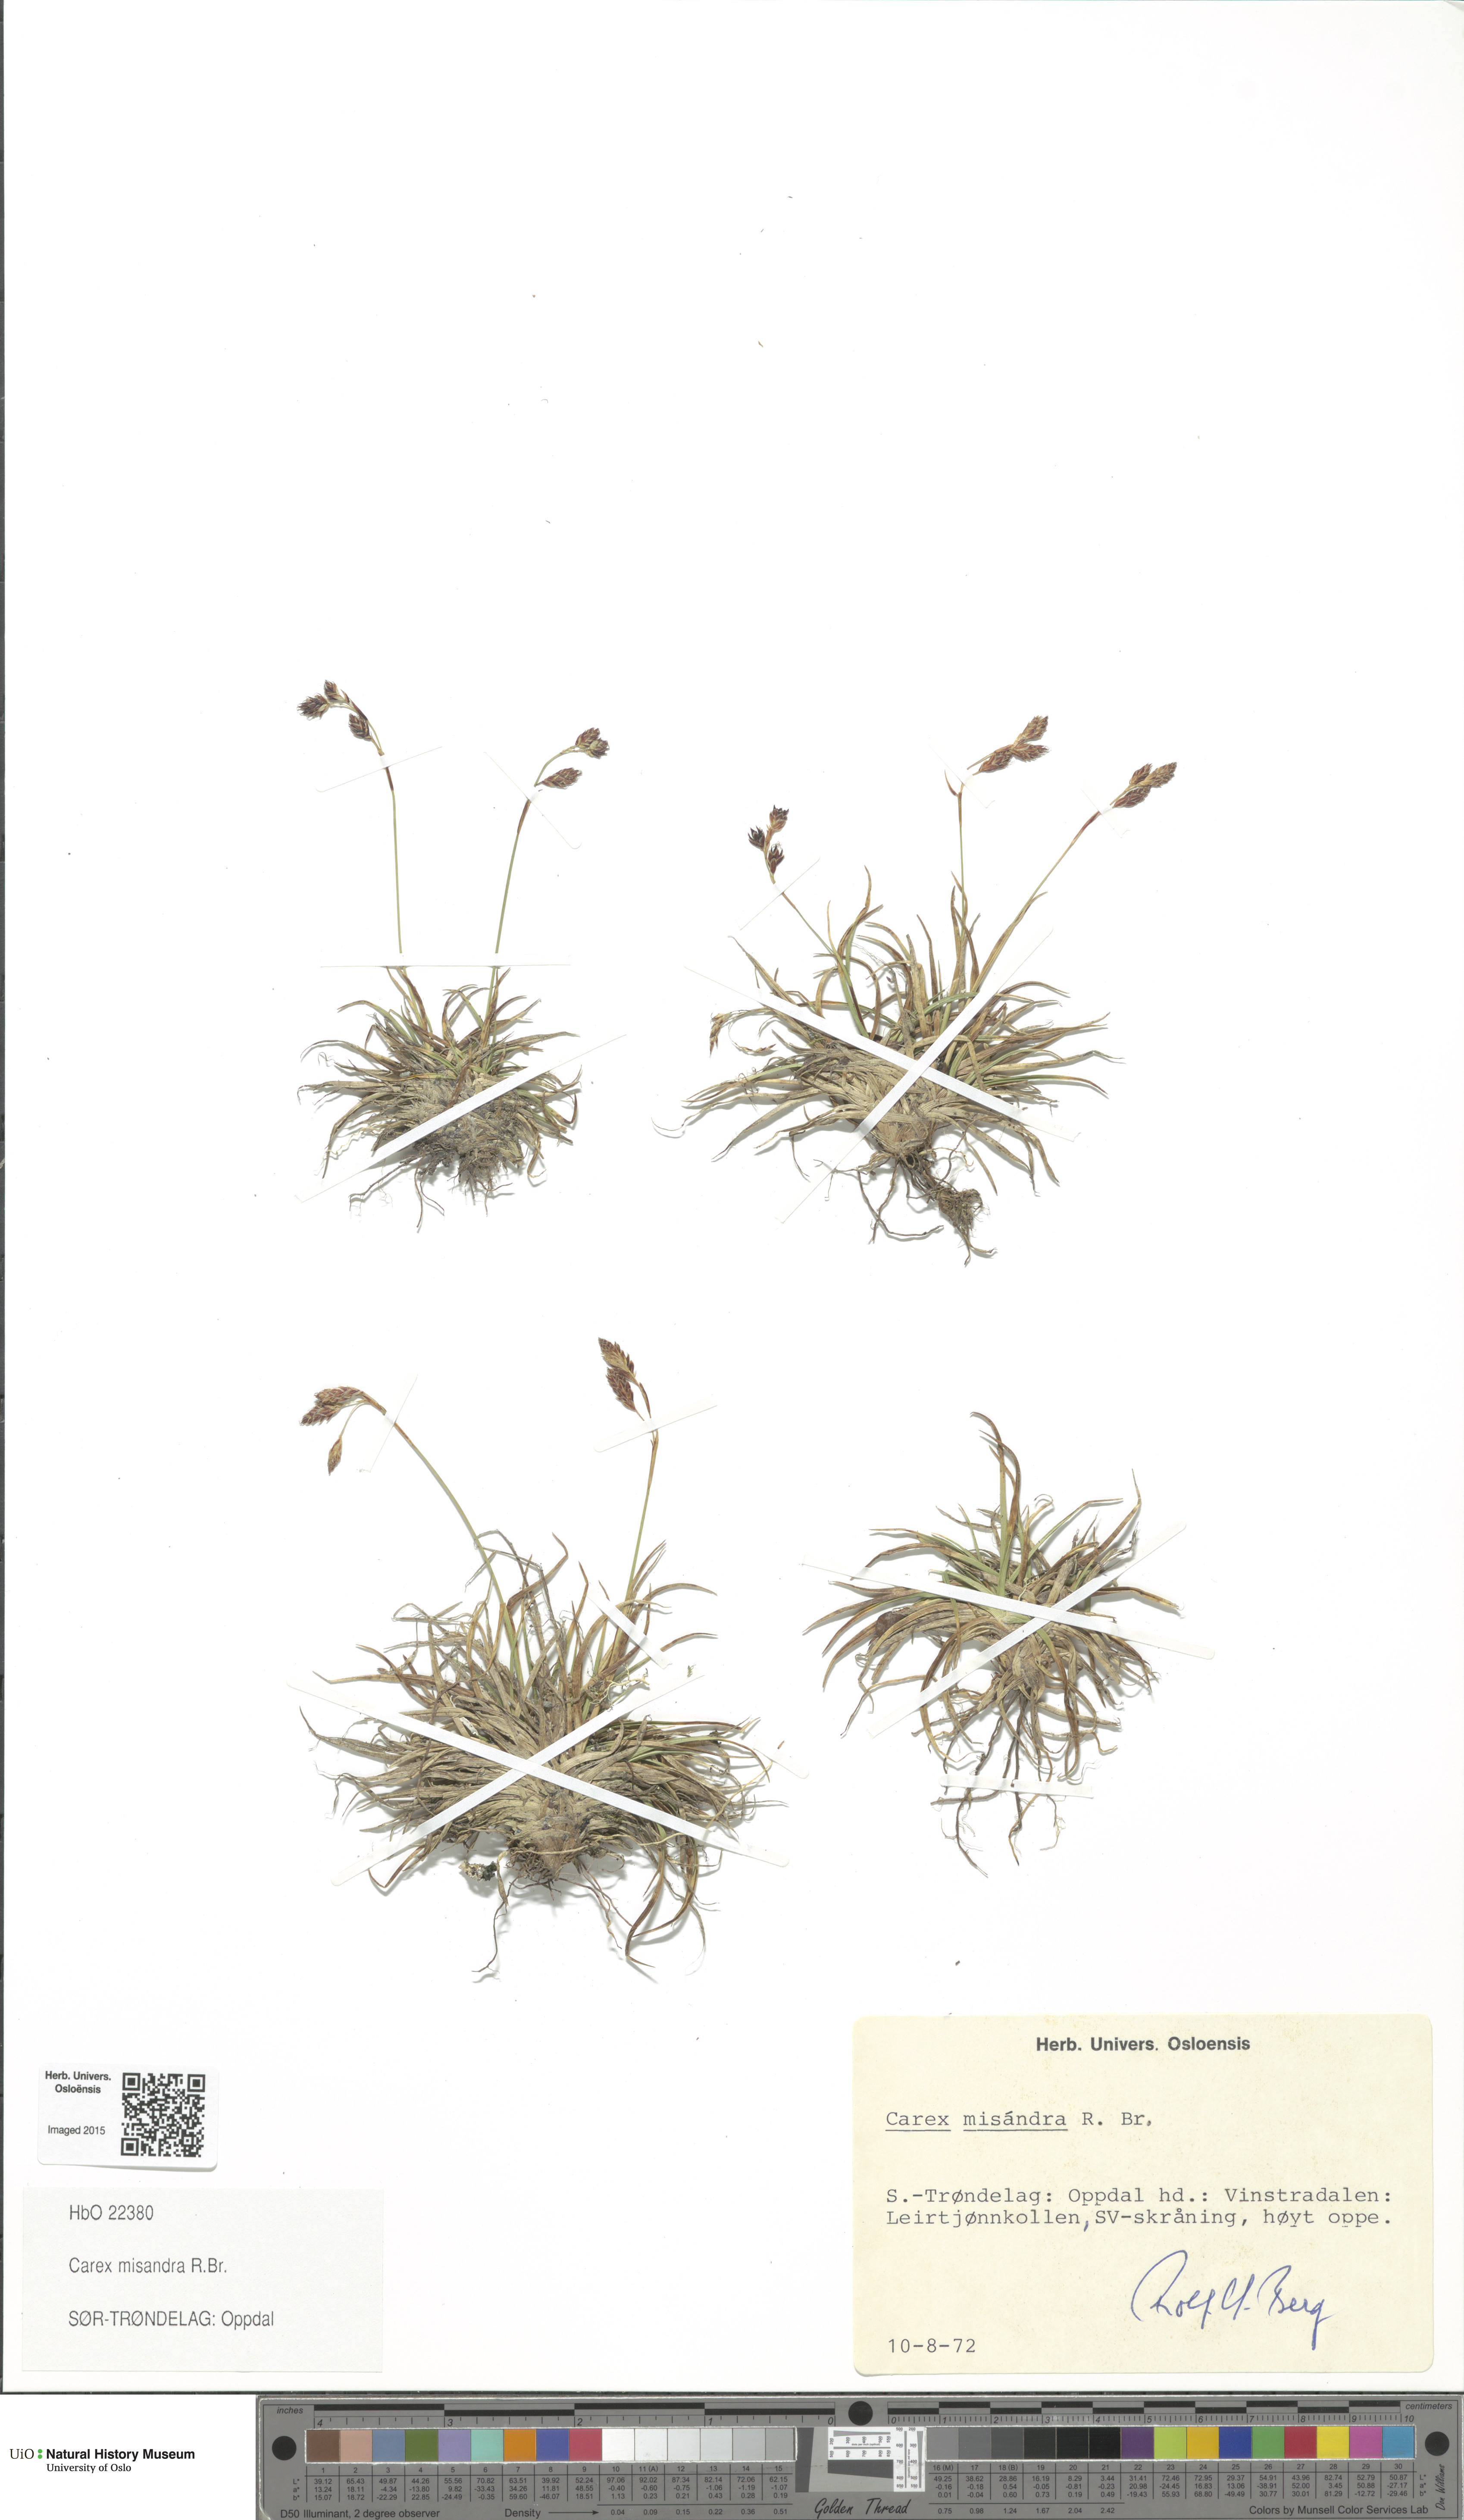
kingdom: Plantae
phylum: Tracheophyta
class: Liliopsida
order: Poales
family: Cyperaceae
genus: Carex
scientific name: Carex fuliginosa
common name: Few-flowered sedge
